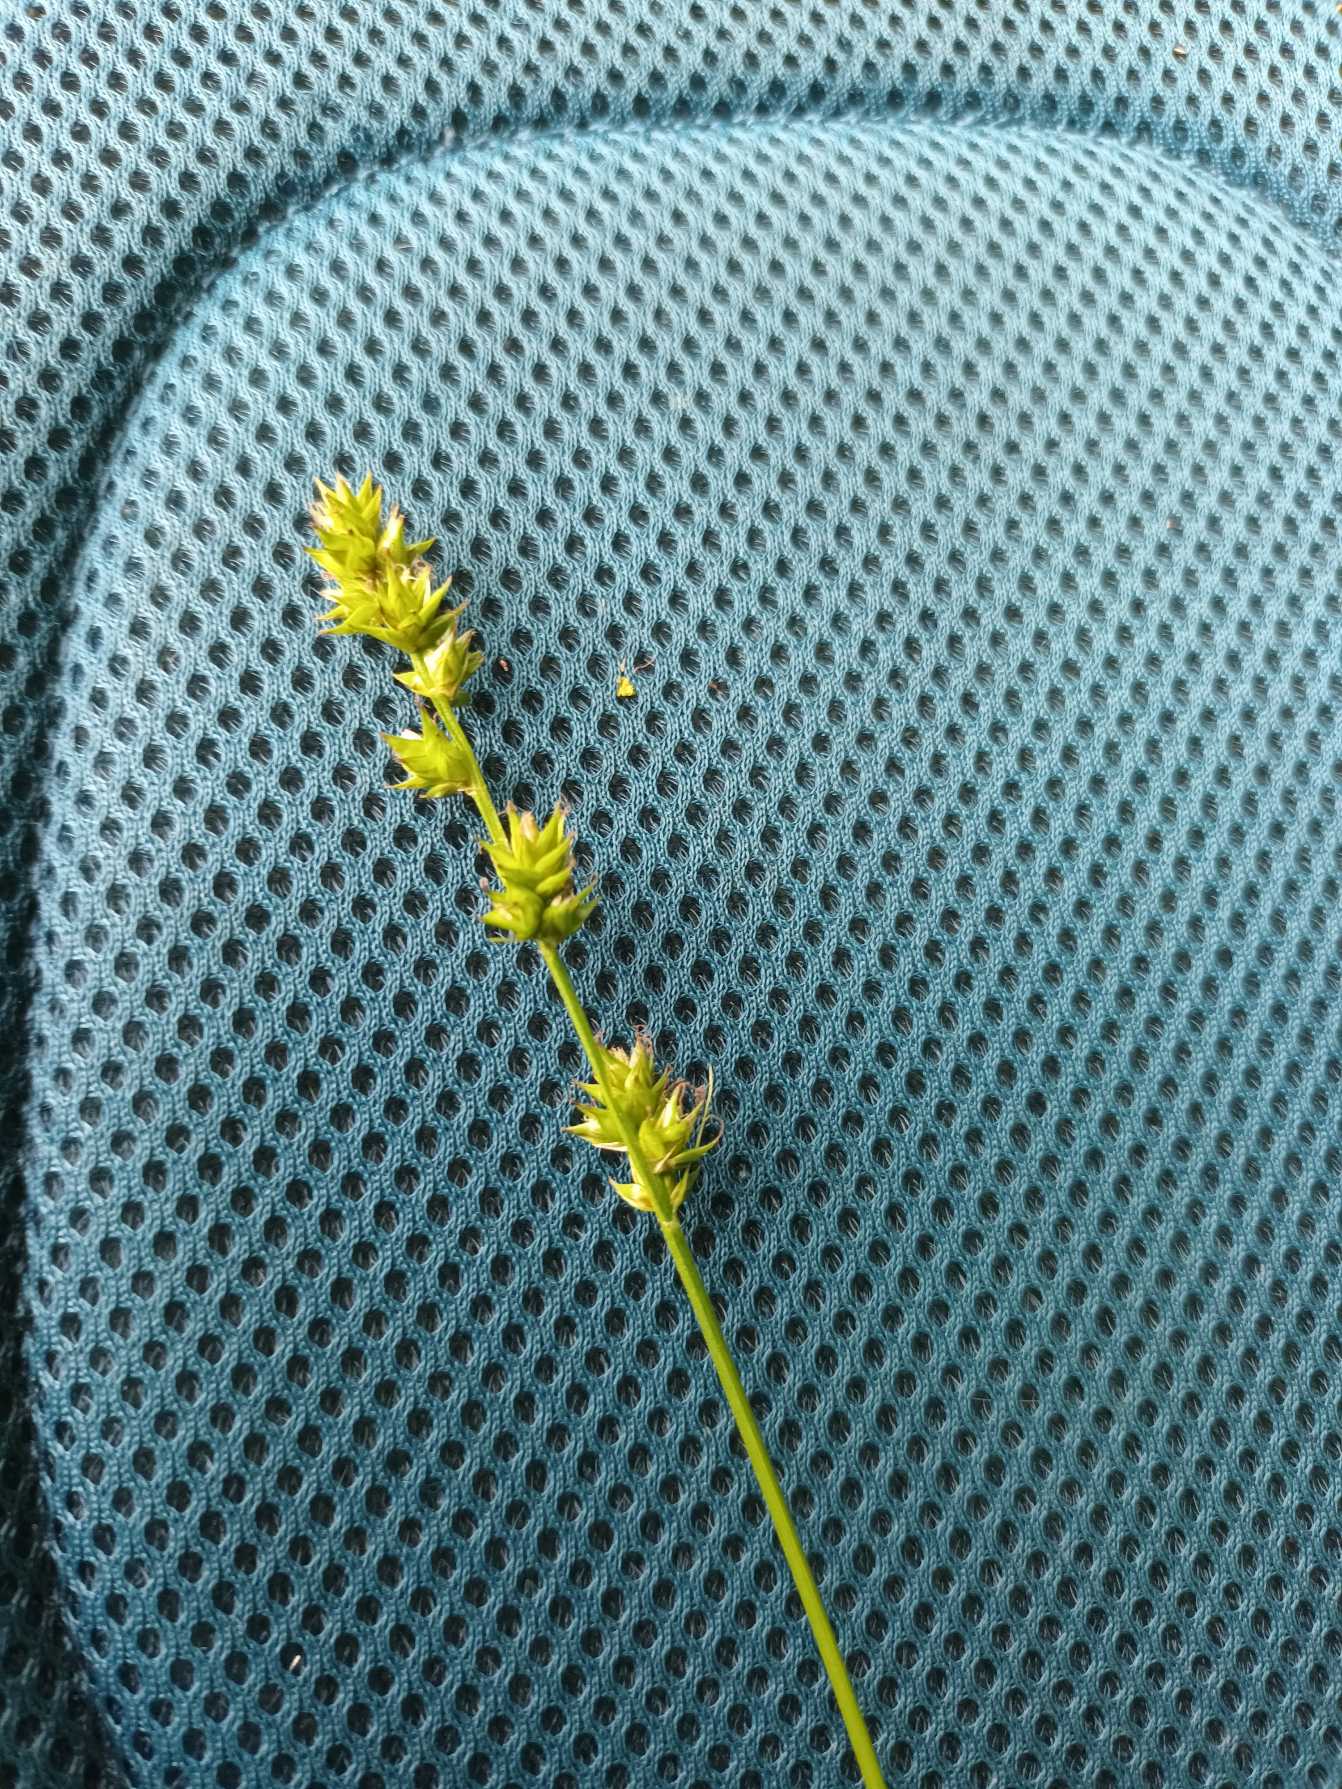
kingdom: Plantae
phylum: Tracheophyta
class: Liliopsida
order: Poales
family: Cyperaceae
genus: Carex
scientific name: Carex divulsa
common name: Mellembrudt star
